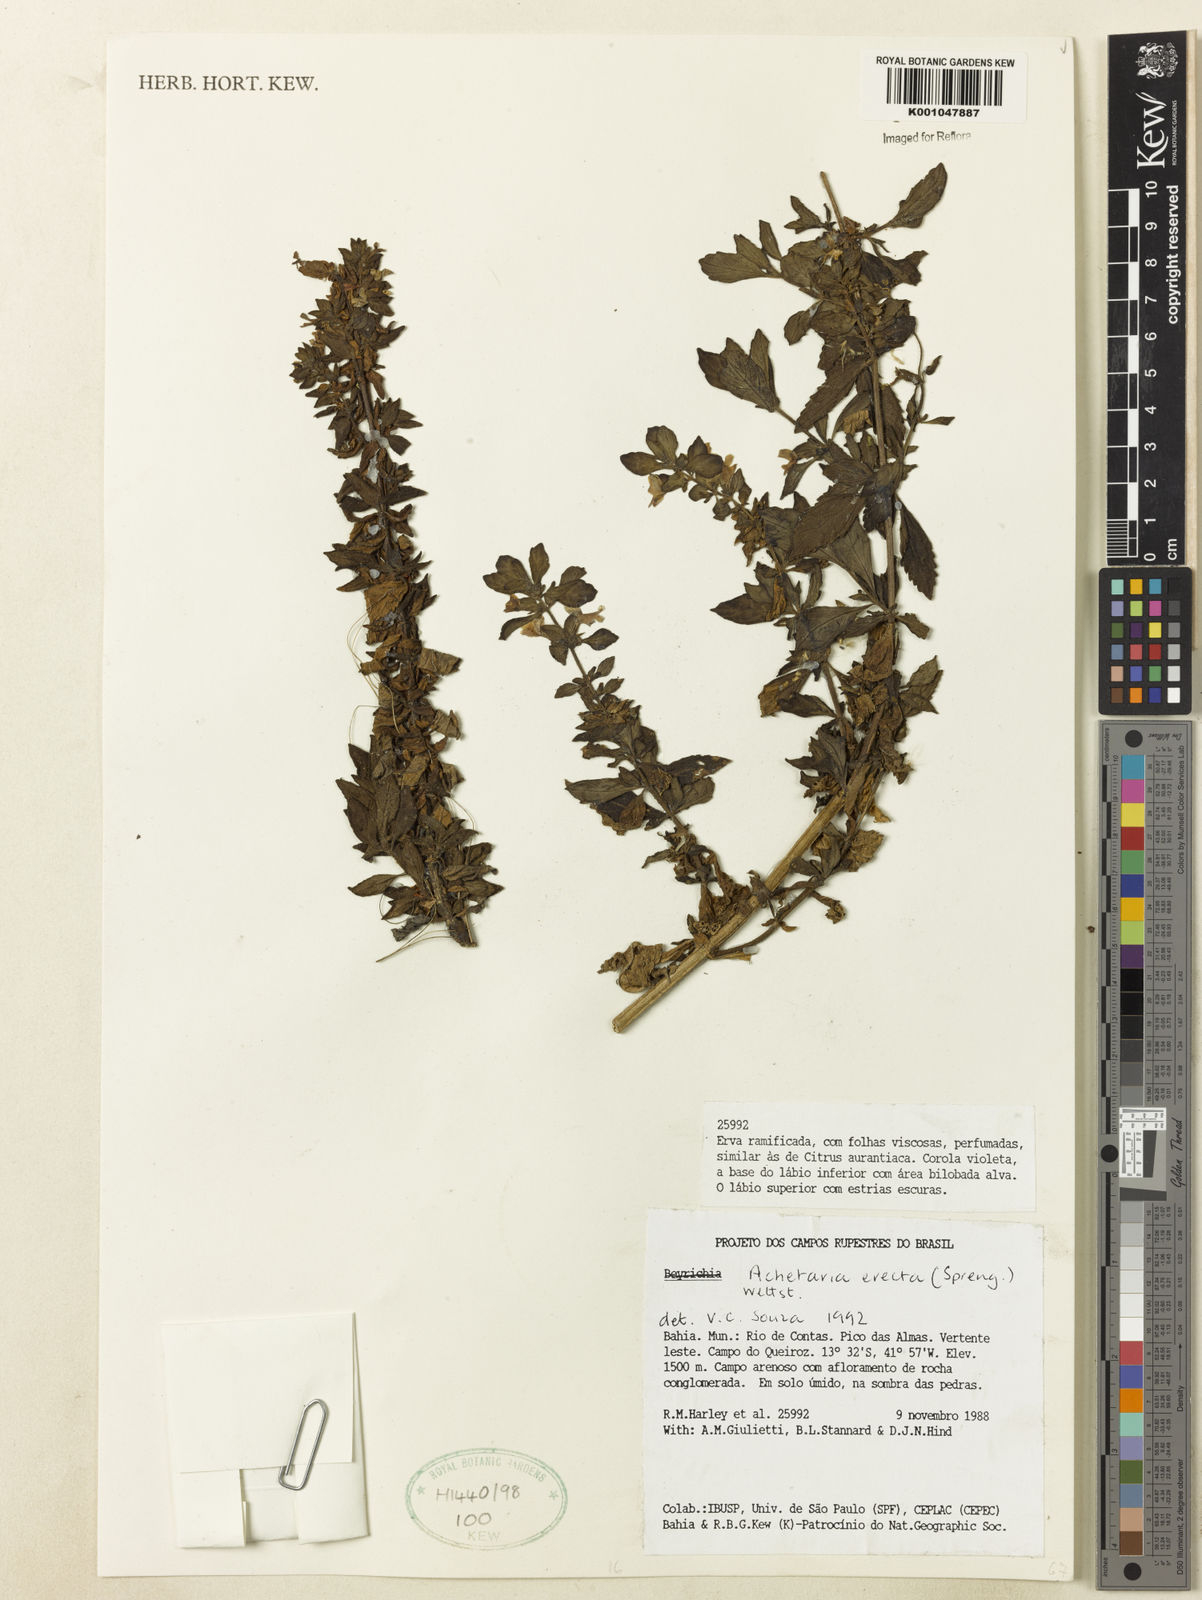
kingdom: Plantae
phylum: Tracheophyta
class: Magnoliopsida
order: Lamiales
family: Plantaginaceae
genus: Matourea
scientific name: Matourea erecta
